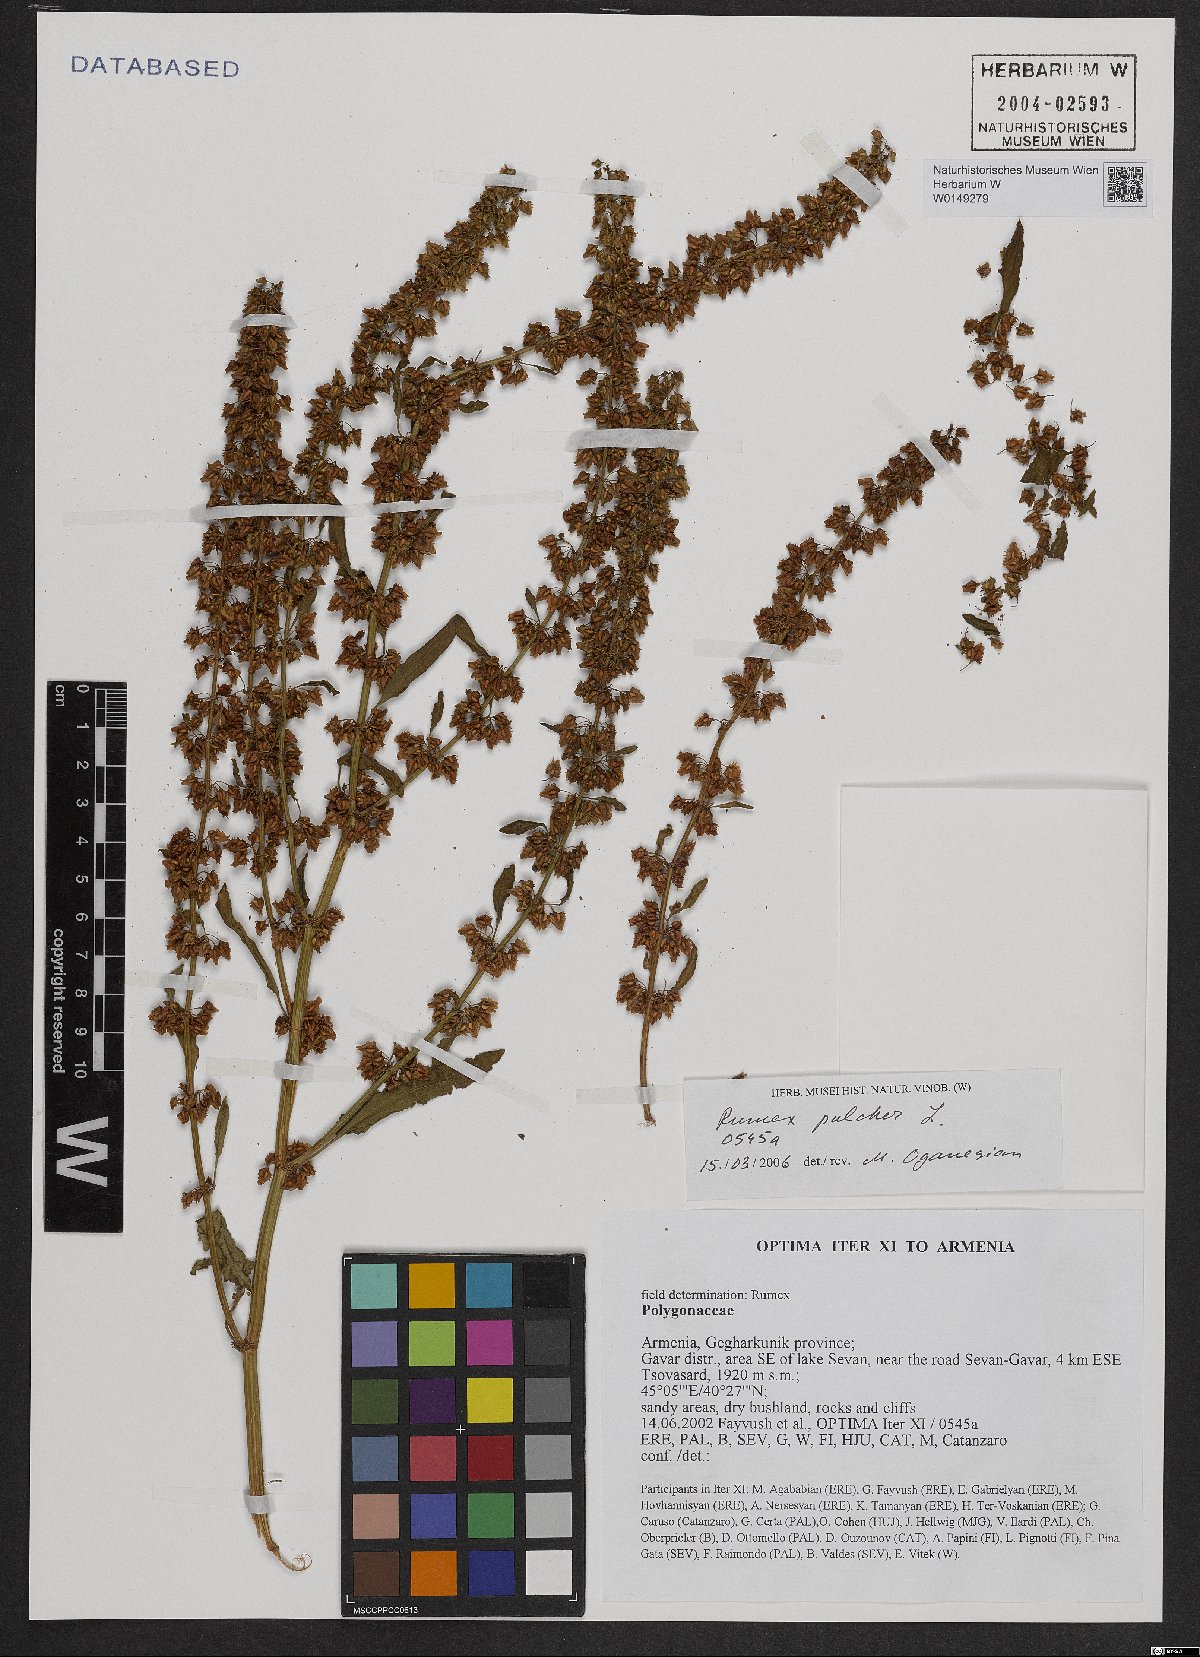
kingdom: Plantae
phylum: Tracheophyta
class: Magnoliopsida
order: Caryophyllales
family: Polygonaceae
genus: Rumex
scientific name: Rumex pulcher
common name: Fiddle dock
